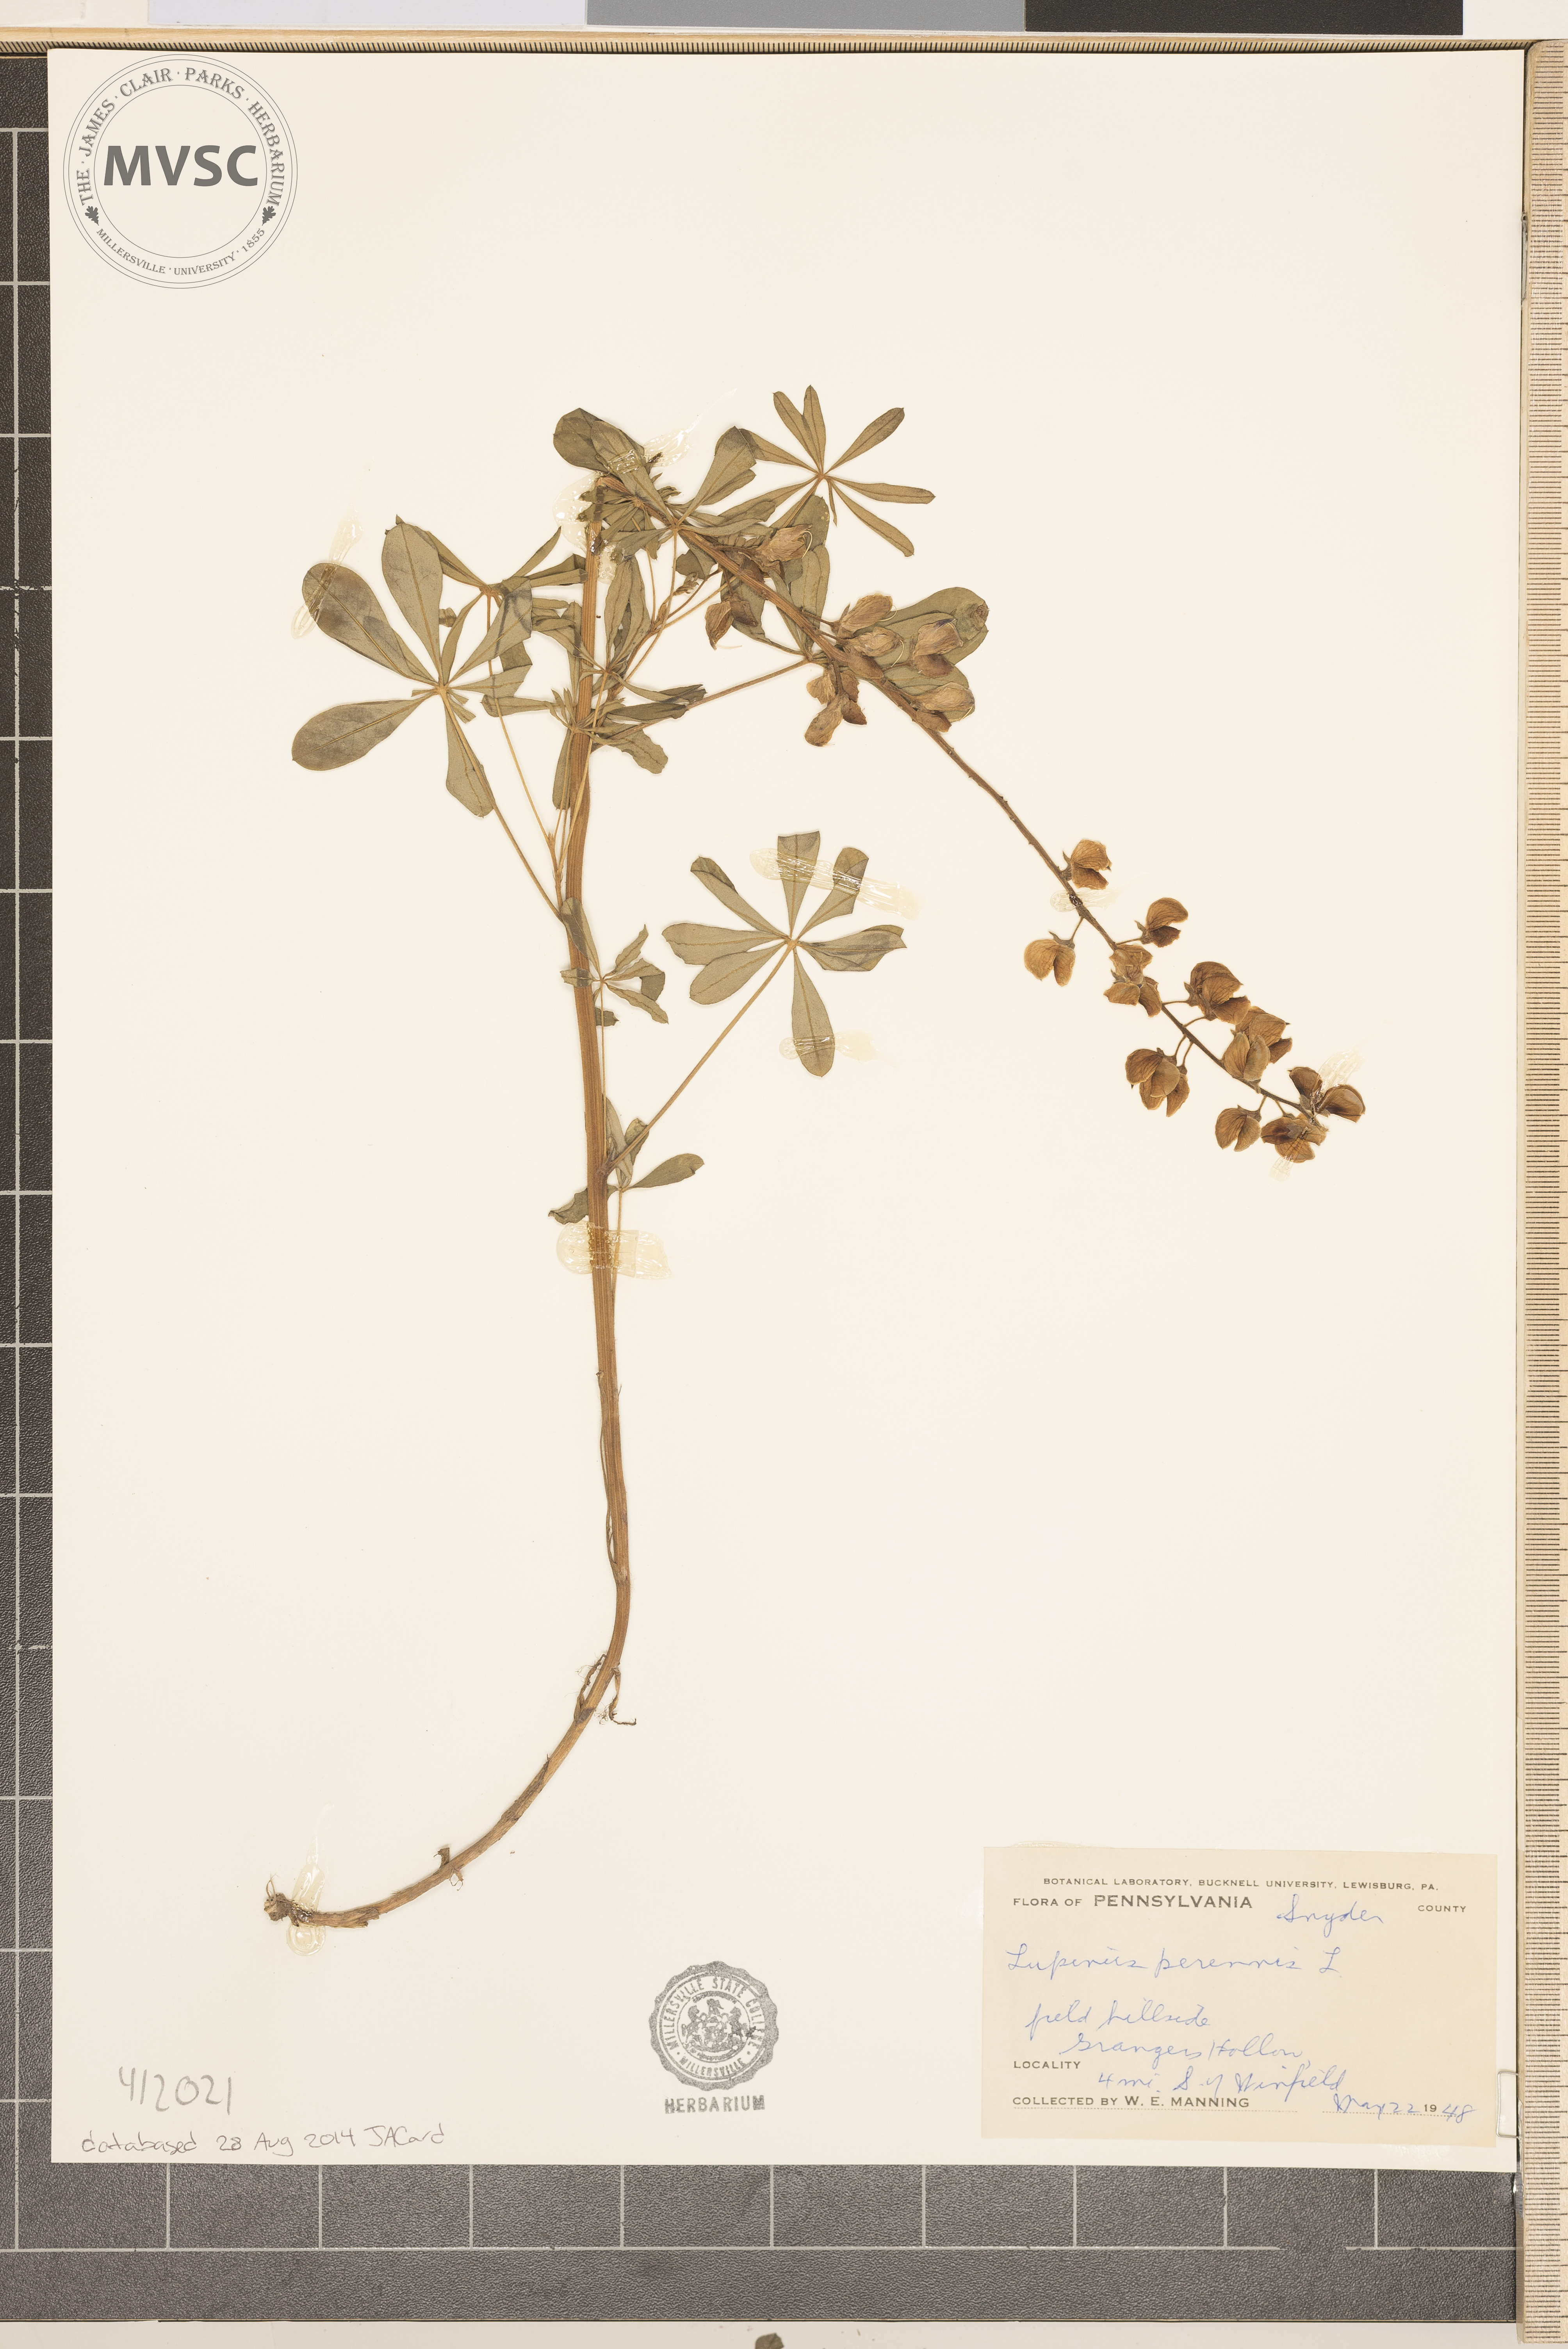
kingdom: Plantae
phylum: Tracheophyta
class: Magnoliopsida
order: Fabales
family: Fabaceae
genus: Lupinus
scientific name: Lupinus perennis
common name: Sundial lupine
